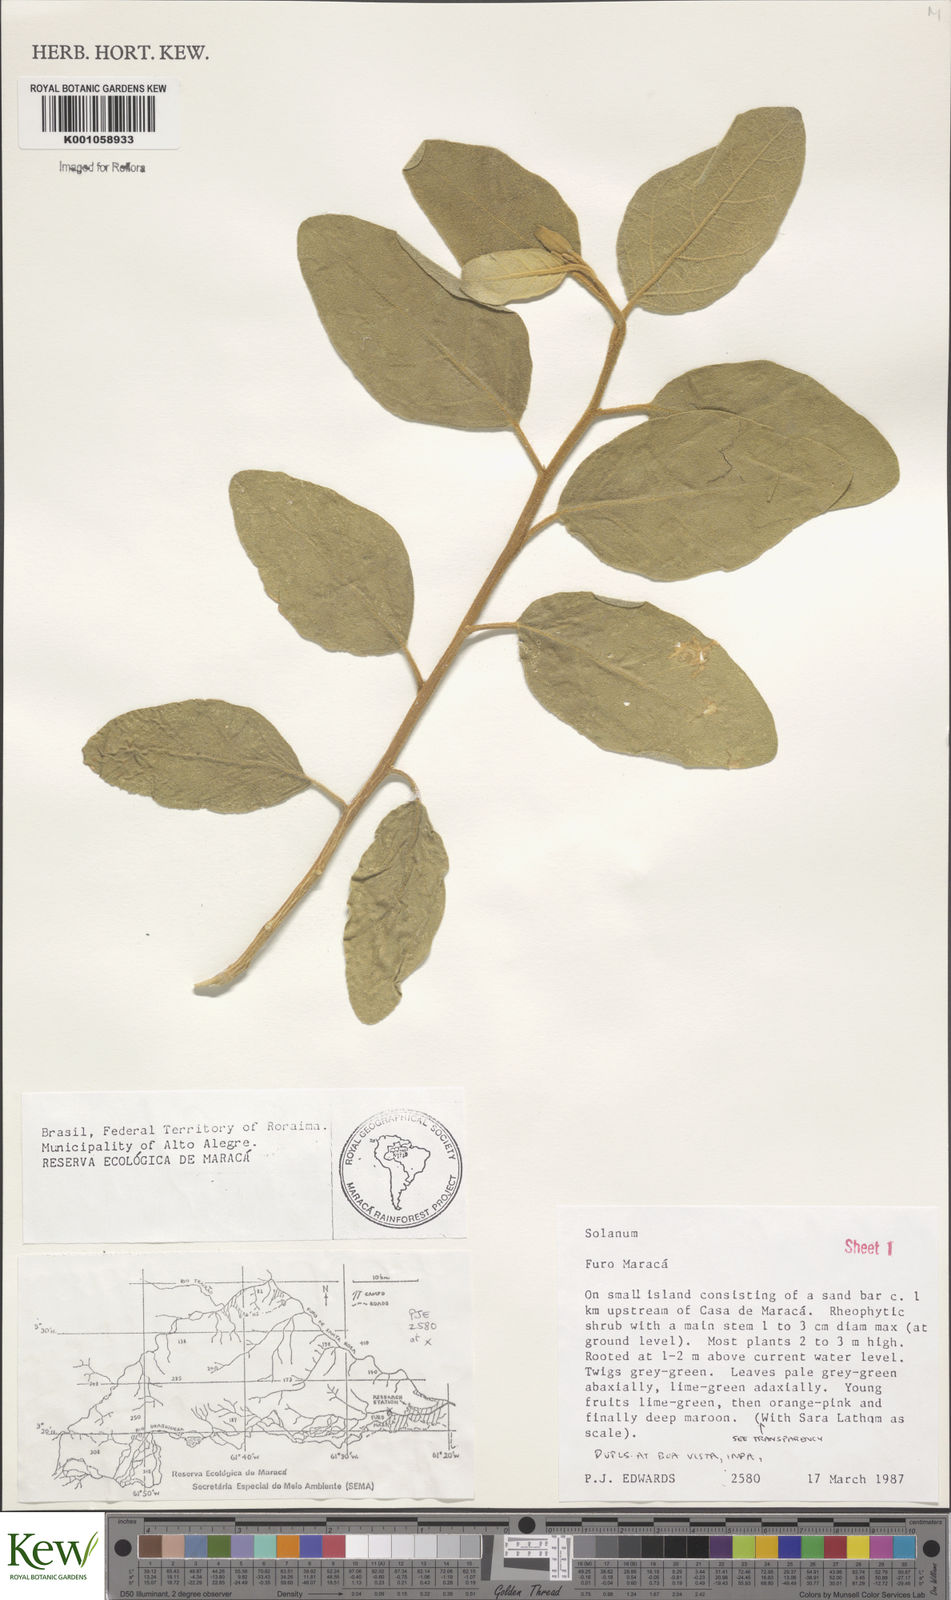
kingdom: Plantae
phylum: Tracheophyta
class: Magnoliopsida
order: Solanales
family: Solanaceae
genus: Solanum
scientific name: Solanum
